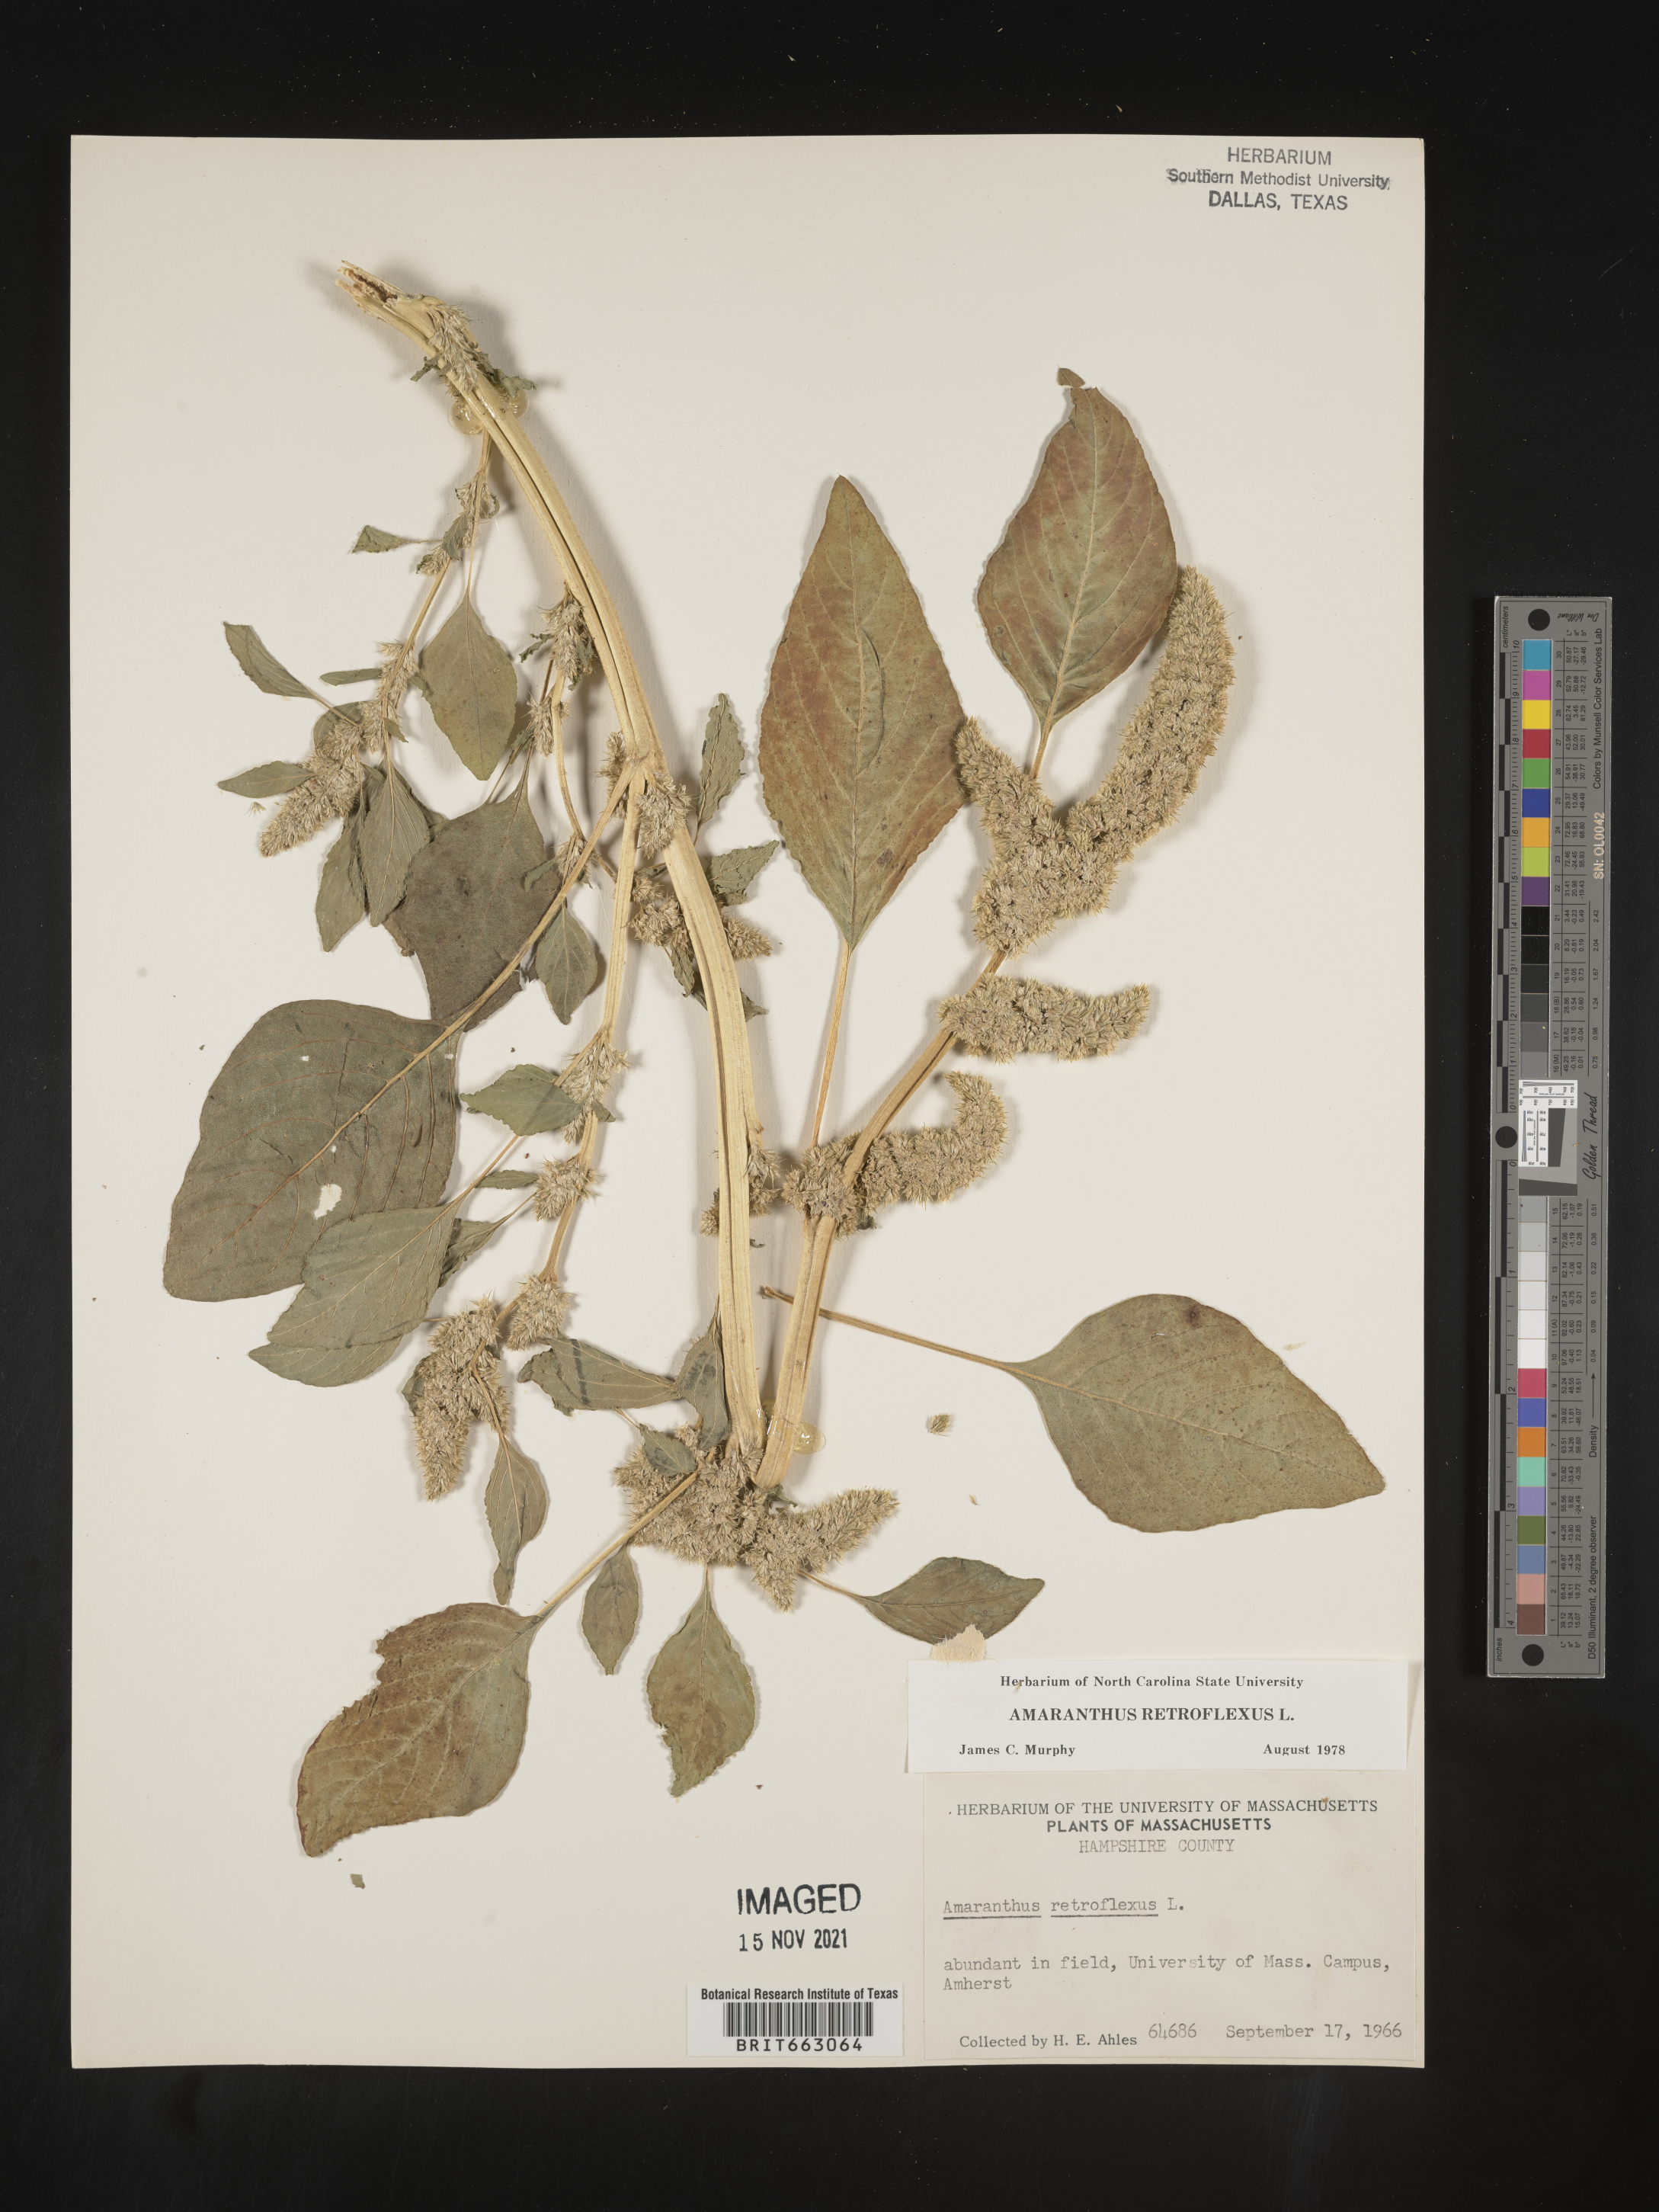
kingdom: Plantae
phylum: Tracheophyta
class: Magnoliopsida
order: Caryophyllales
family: Amaranthaceae
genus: Amaranthus
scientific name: Amaranthus retroflexus
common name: Redroot amaranth
